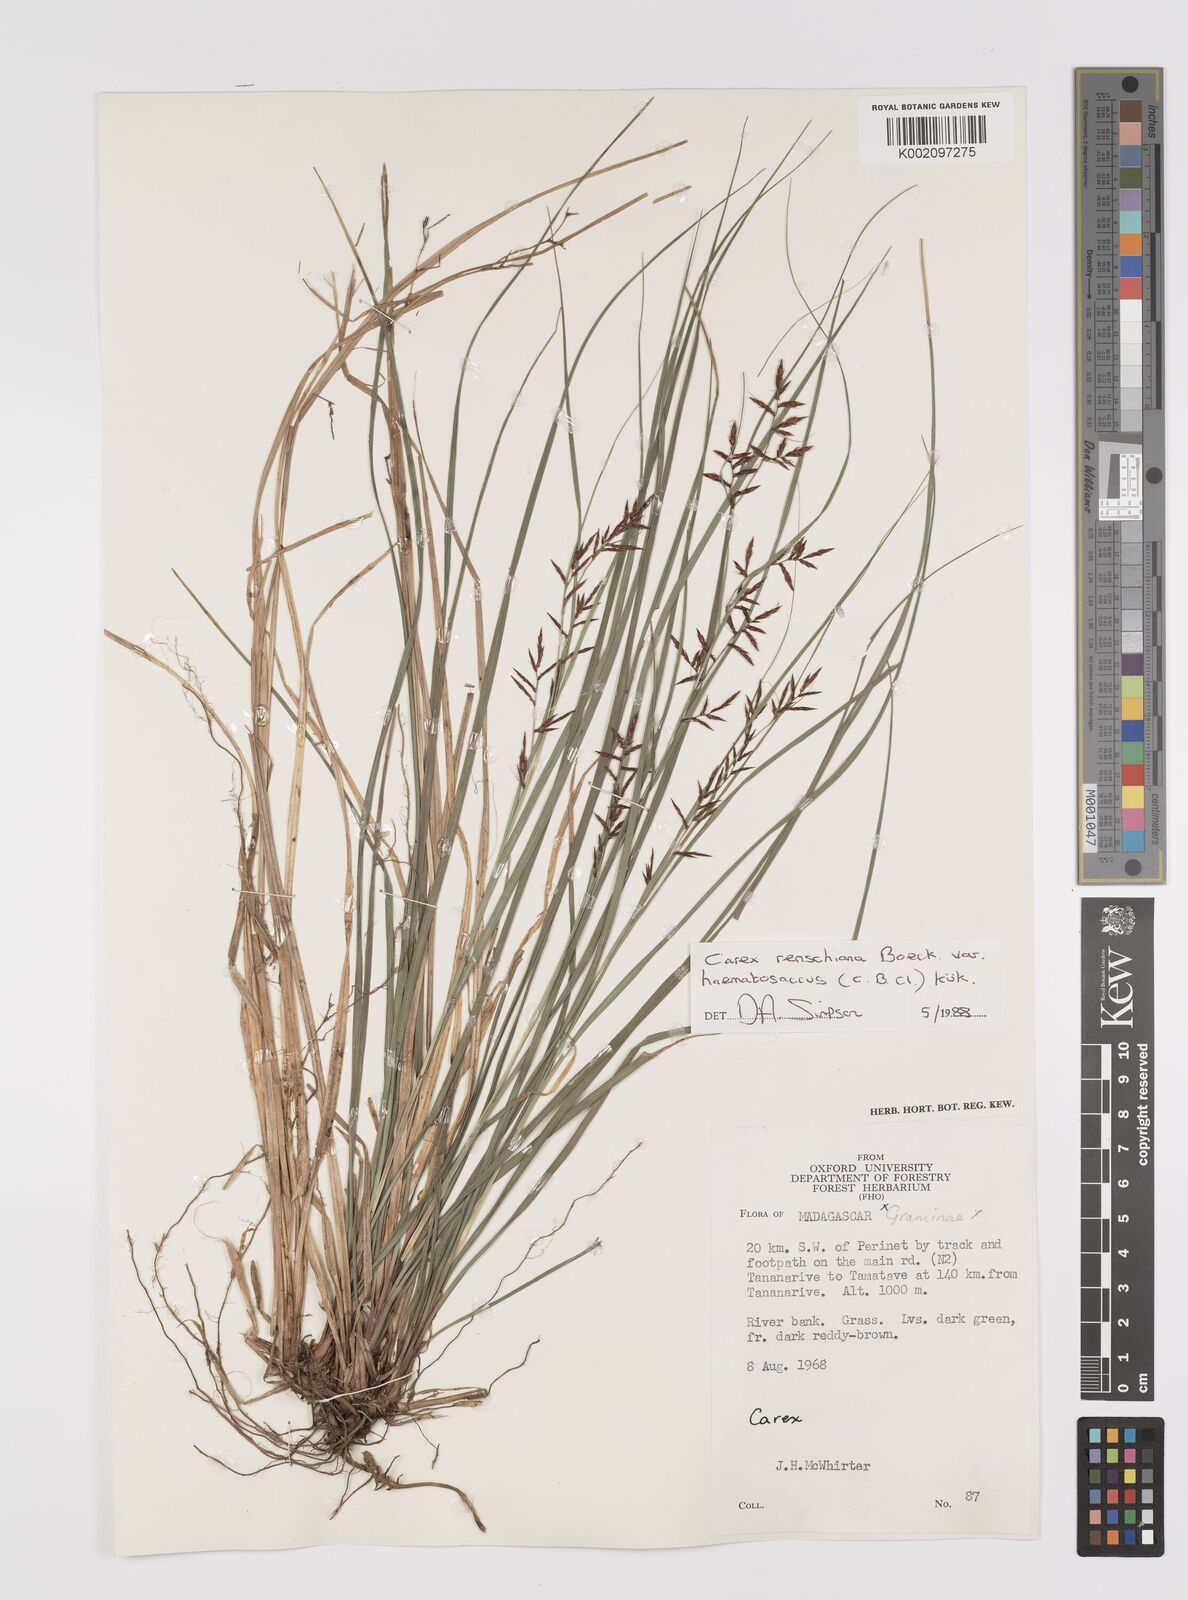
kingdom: Plantae
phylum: Tracheophyta
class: Liliopsida
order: Poales
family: Cyperaceae
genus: Carex
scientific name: Carex renschiana
